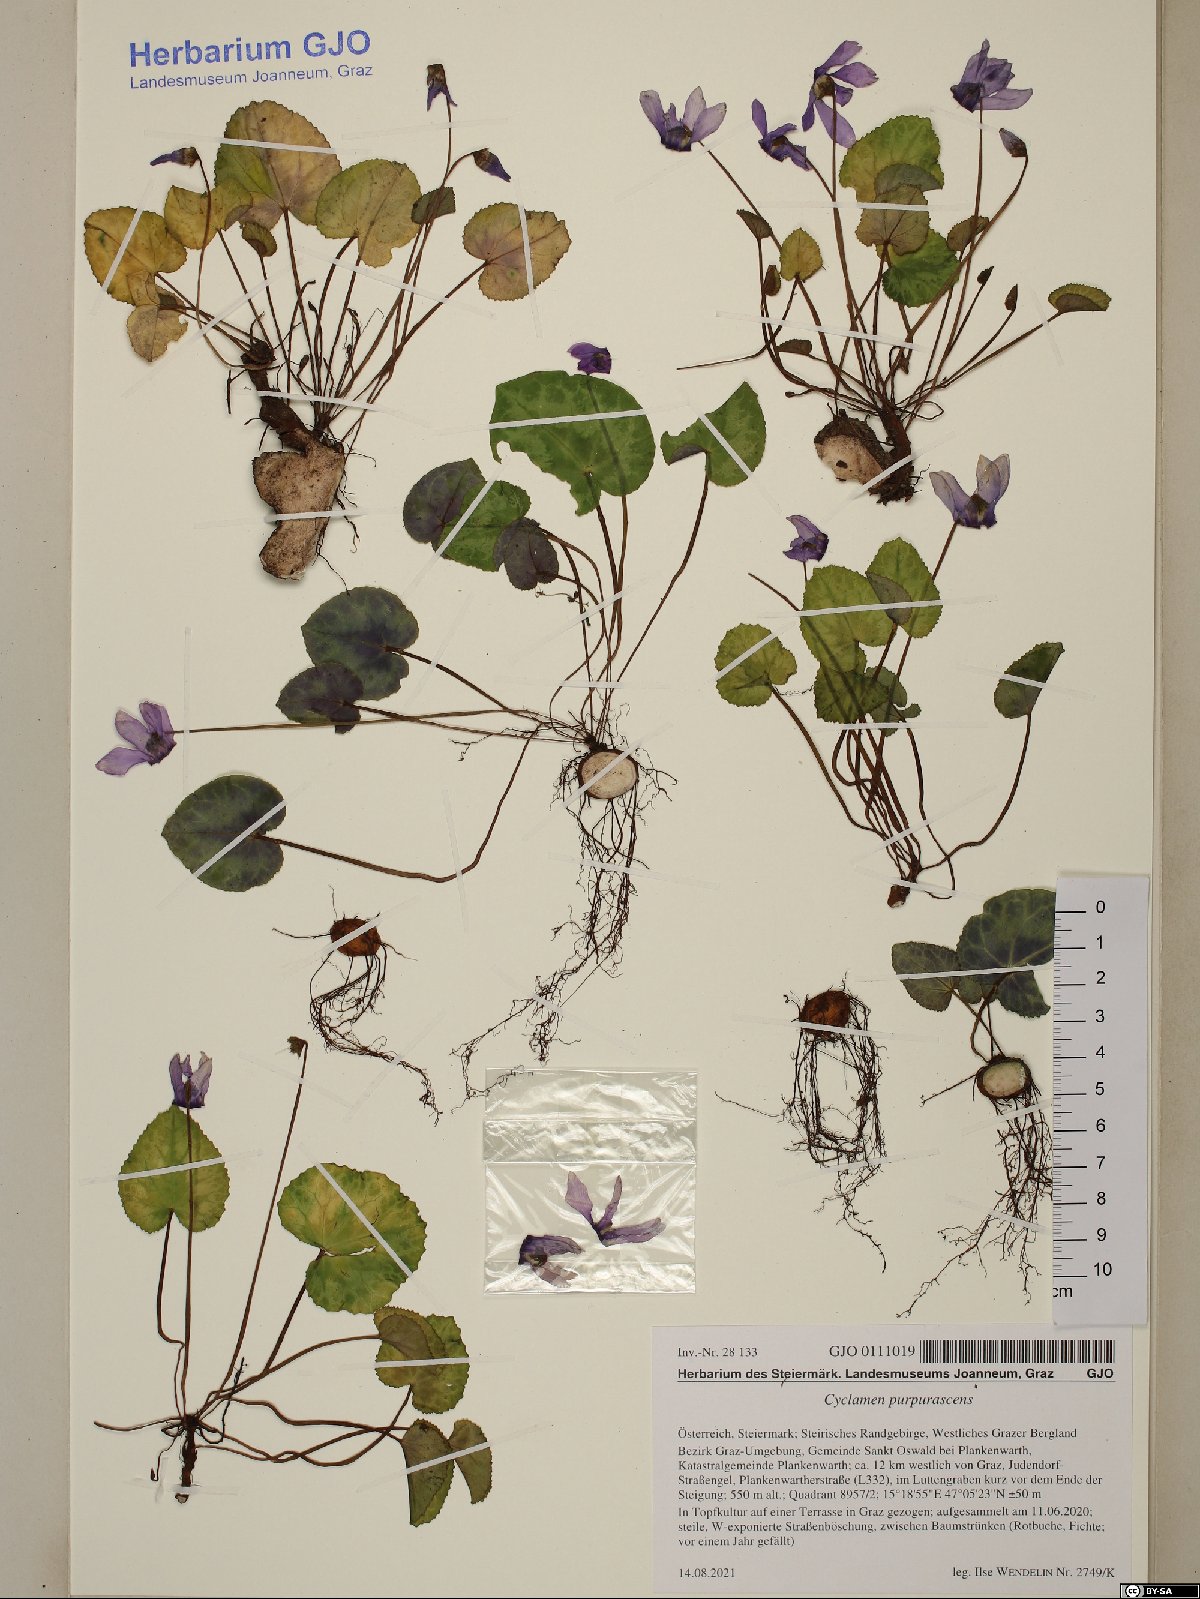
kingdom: Plantae
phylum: Tracheophyta
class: Magnoliopsida
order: Ericales
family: Primulaceae
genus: Cyclamen
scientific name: Cyclamen purpurascens
